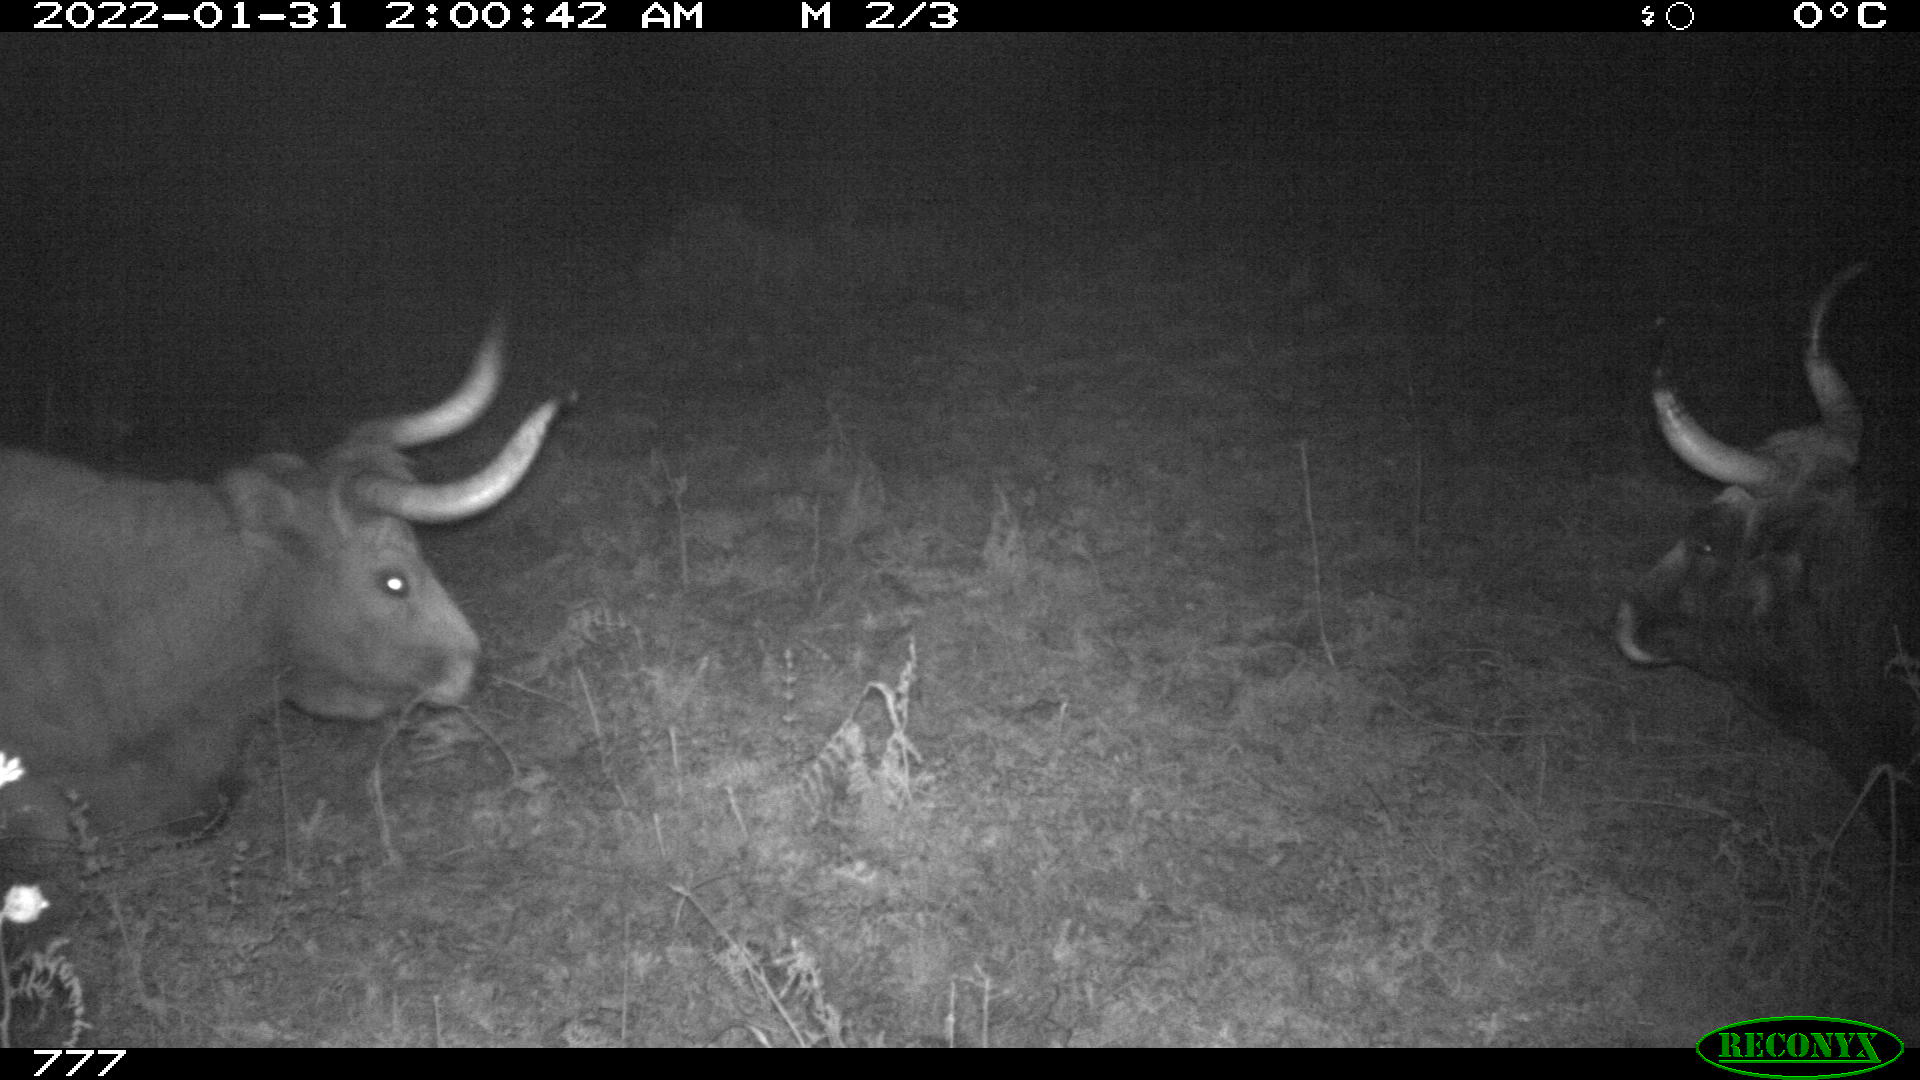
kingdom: Animalia
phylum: Chordata
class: Mammalia
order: Artiodactyla
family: Bovidae
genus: Bos
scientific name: Bos taurus
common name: Domesticated cattle
